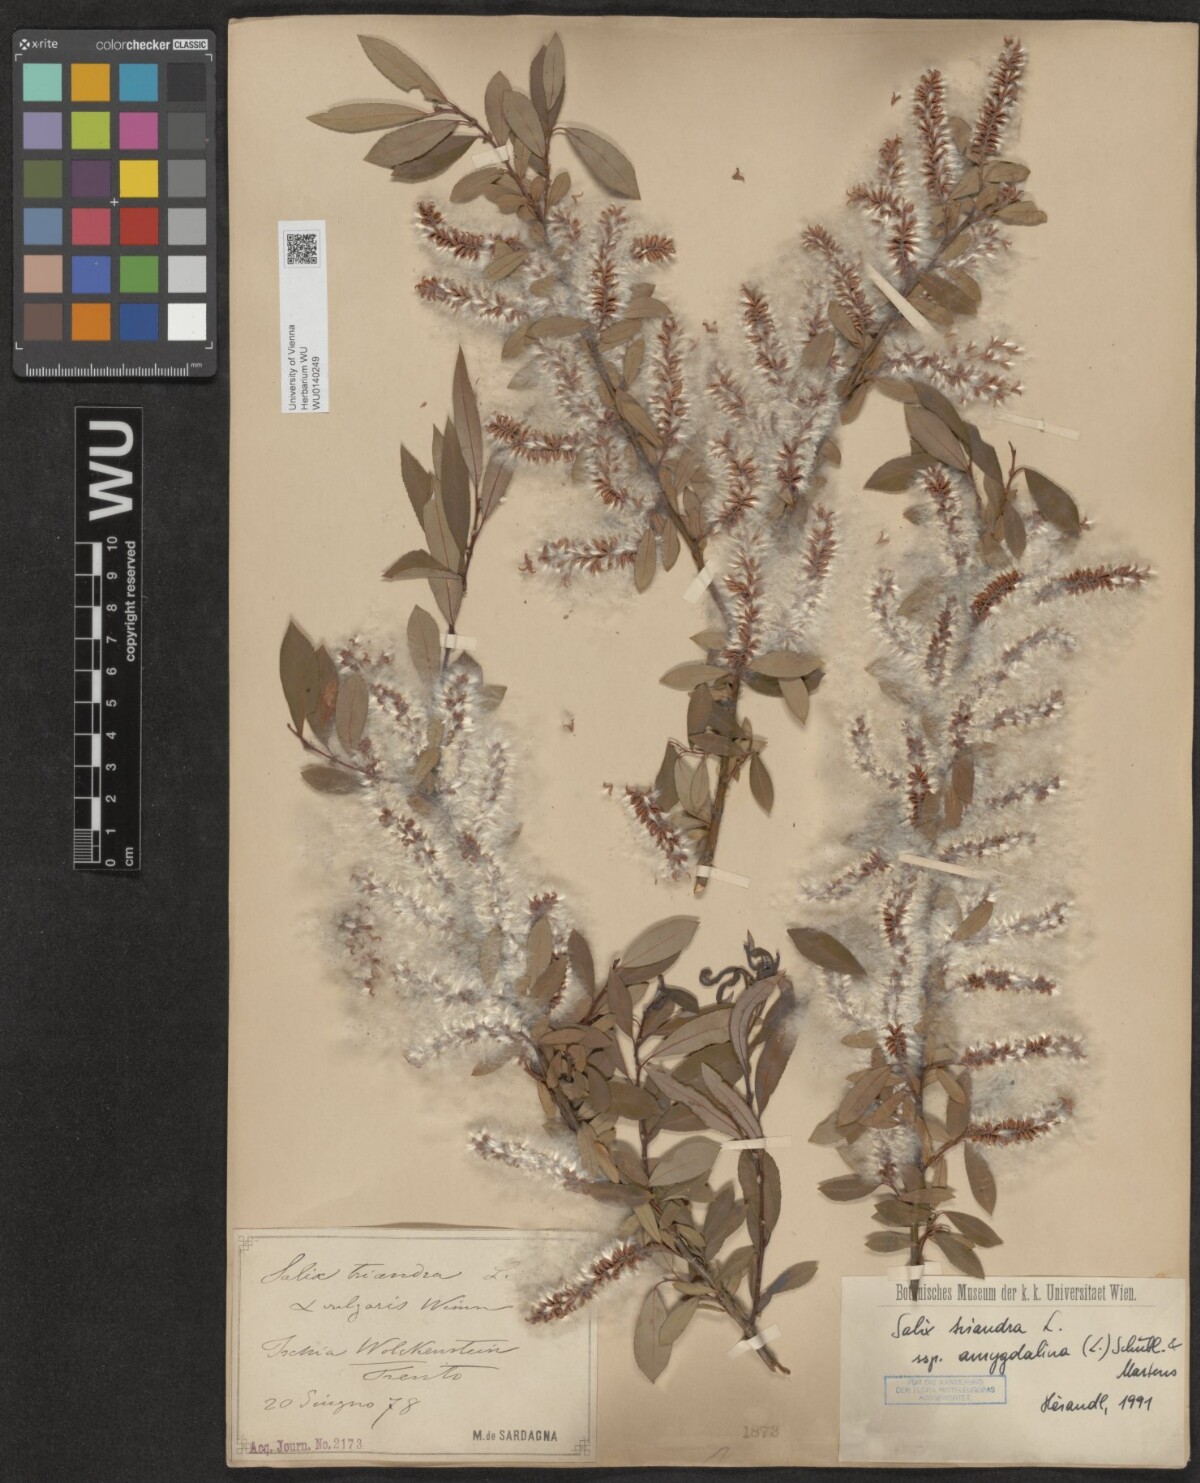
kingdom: Plantae
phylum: Tracheophyta
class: Magnoliopsida
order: Malpighiales
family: Salicaceae
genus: Salix
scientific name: Salix triandra
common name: Almond willow
